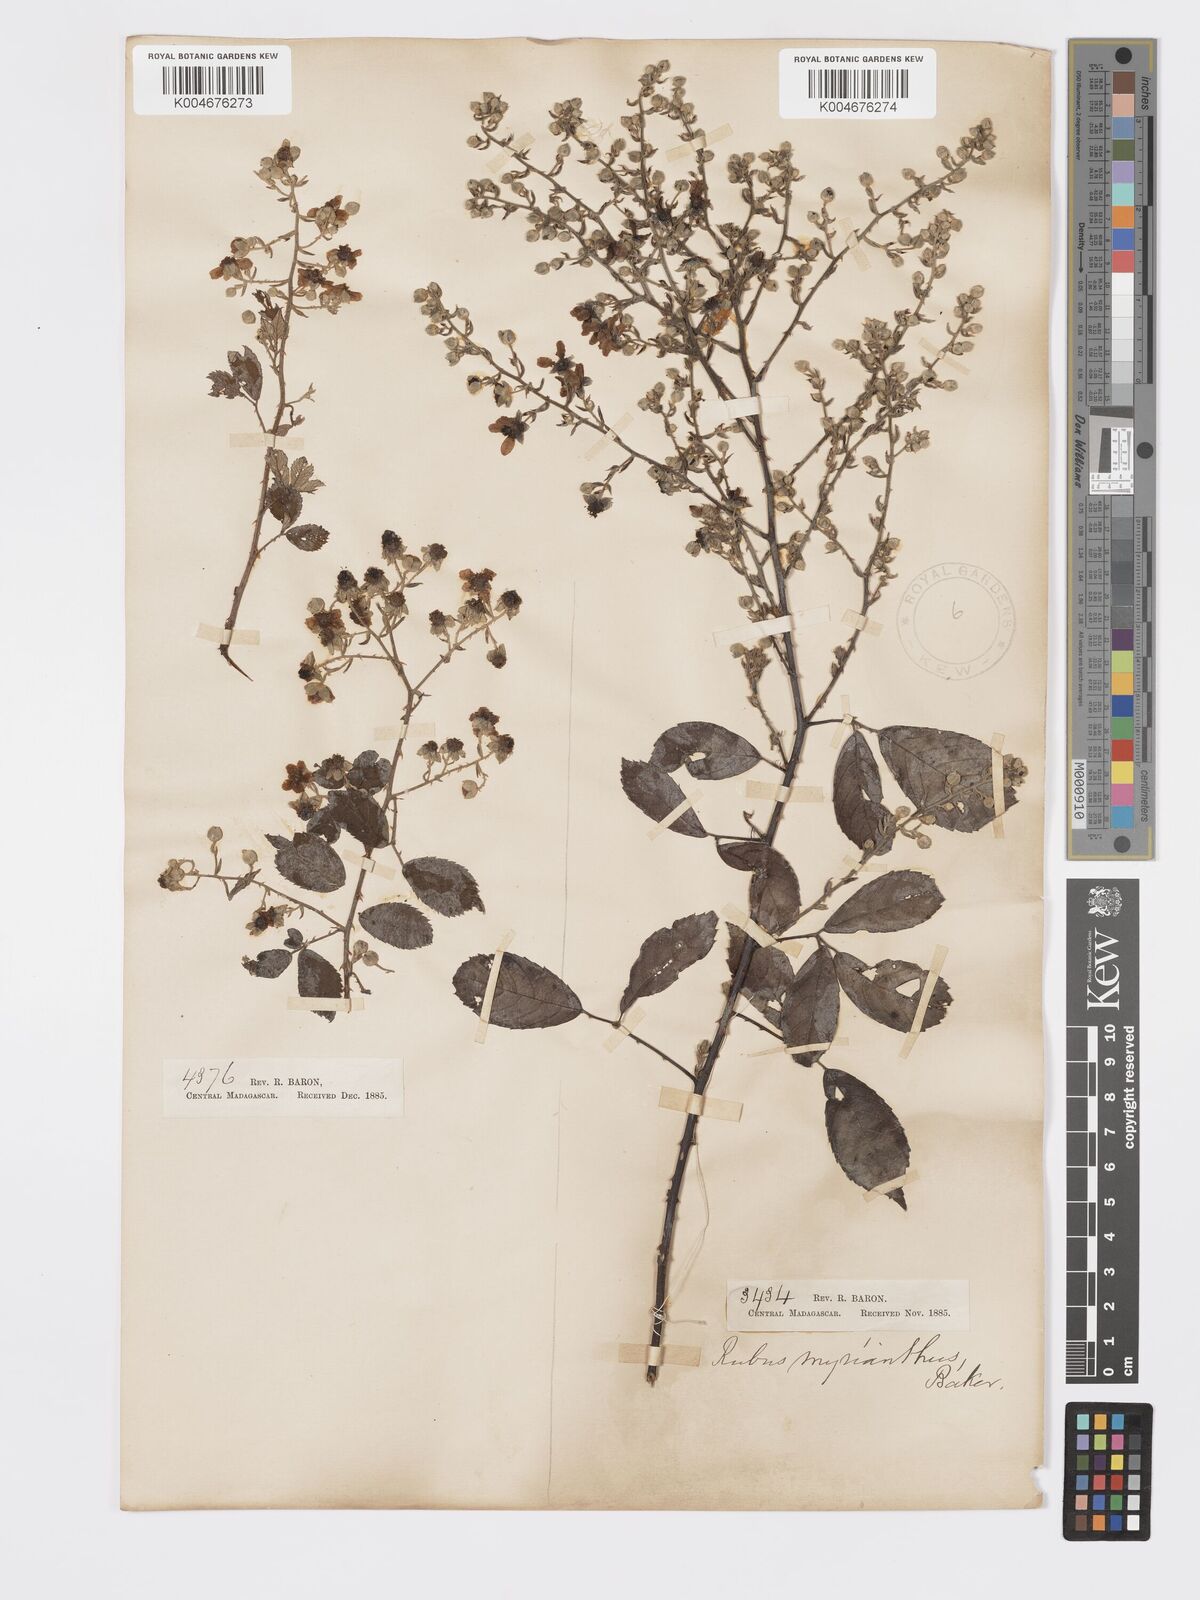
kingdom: Plantae
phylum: Tracheophyta
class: Magnoliopsida
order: Rosales
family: Rosaceae
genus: Rubus
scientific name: Rubus
